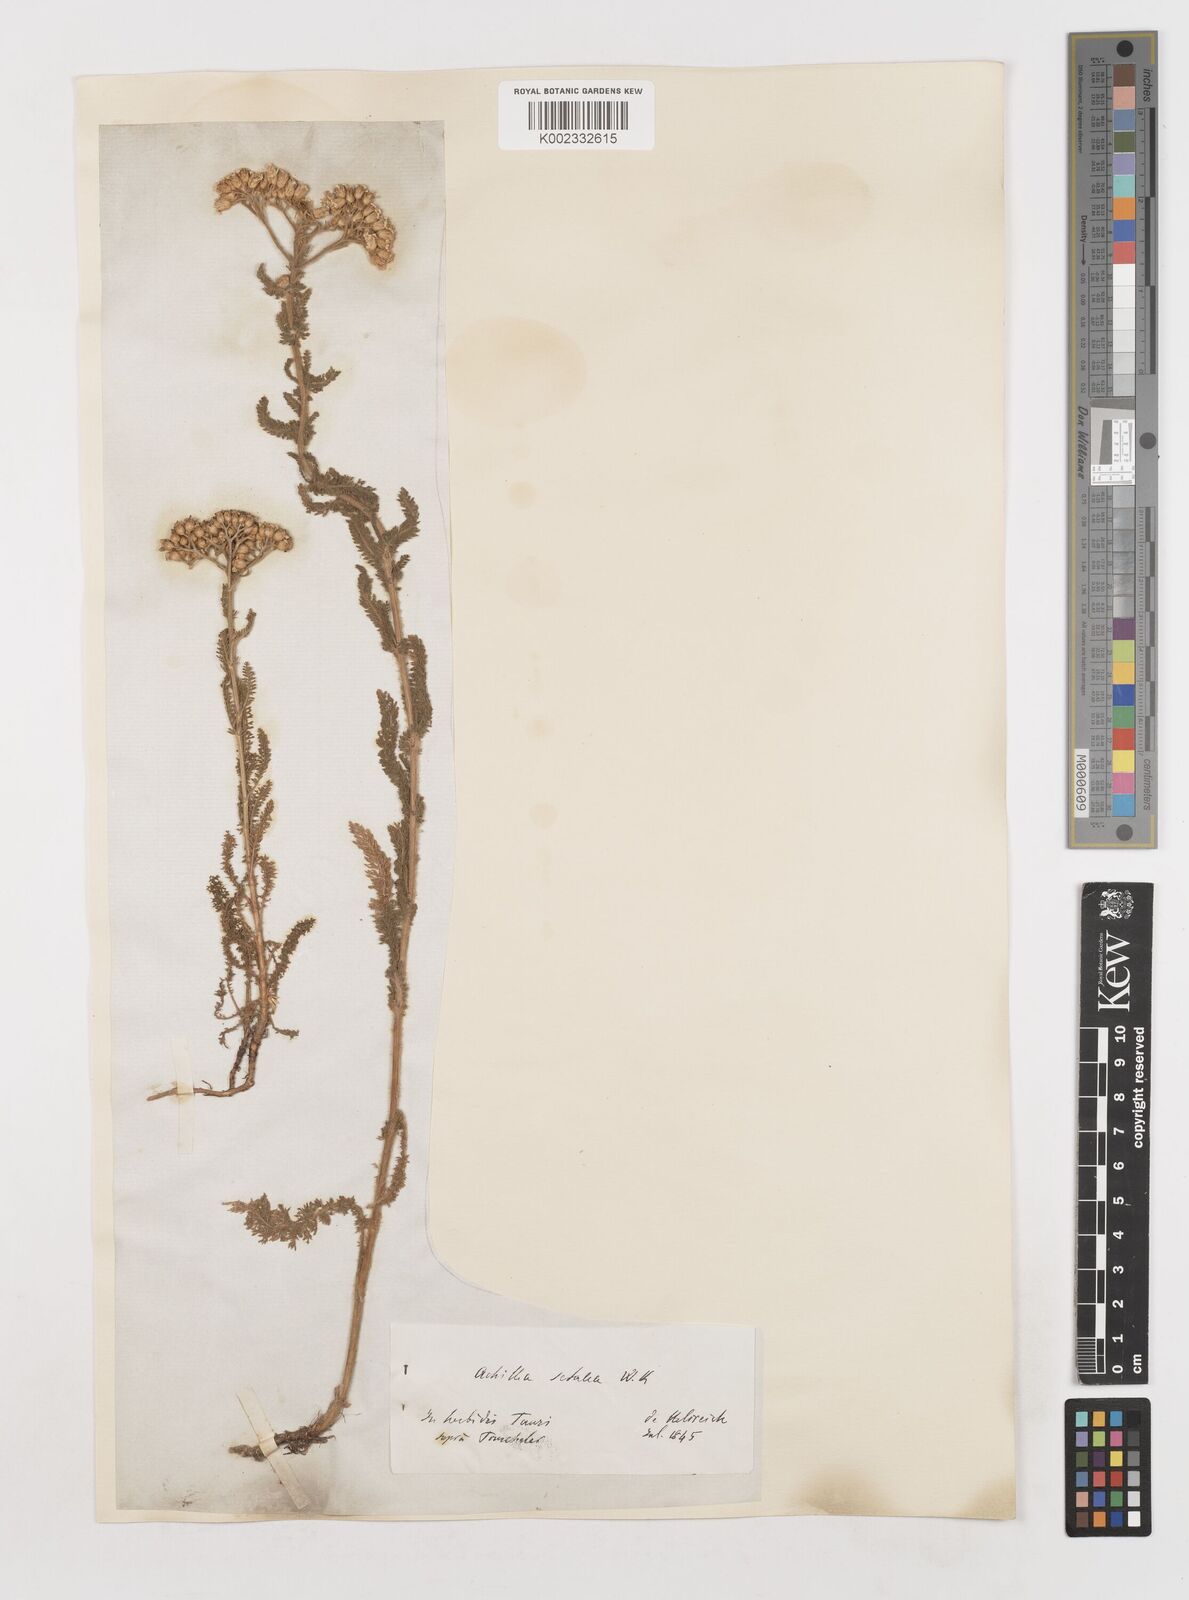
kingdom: Plantae
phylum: Tracheophyta
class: Magnoliopsida
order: Asterales
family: Asteraceae
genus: Achillea
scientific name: Achillea setacea
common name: Bristly yarrow
